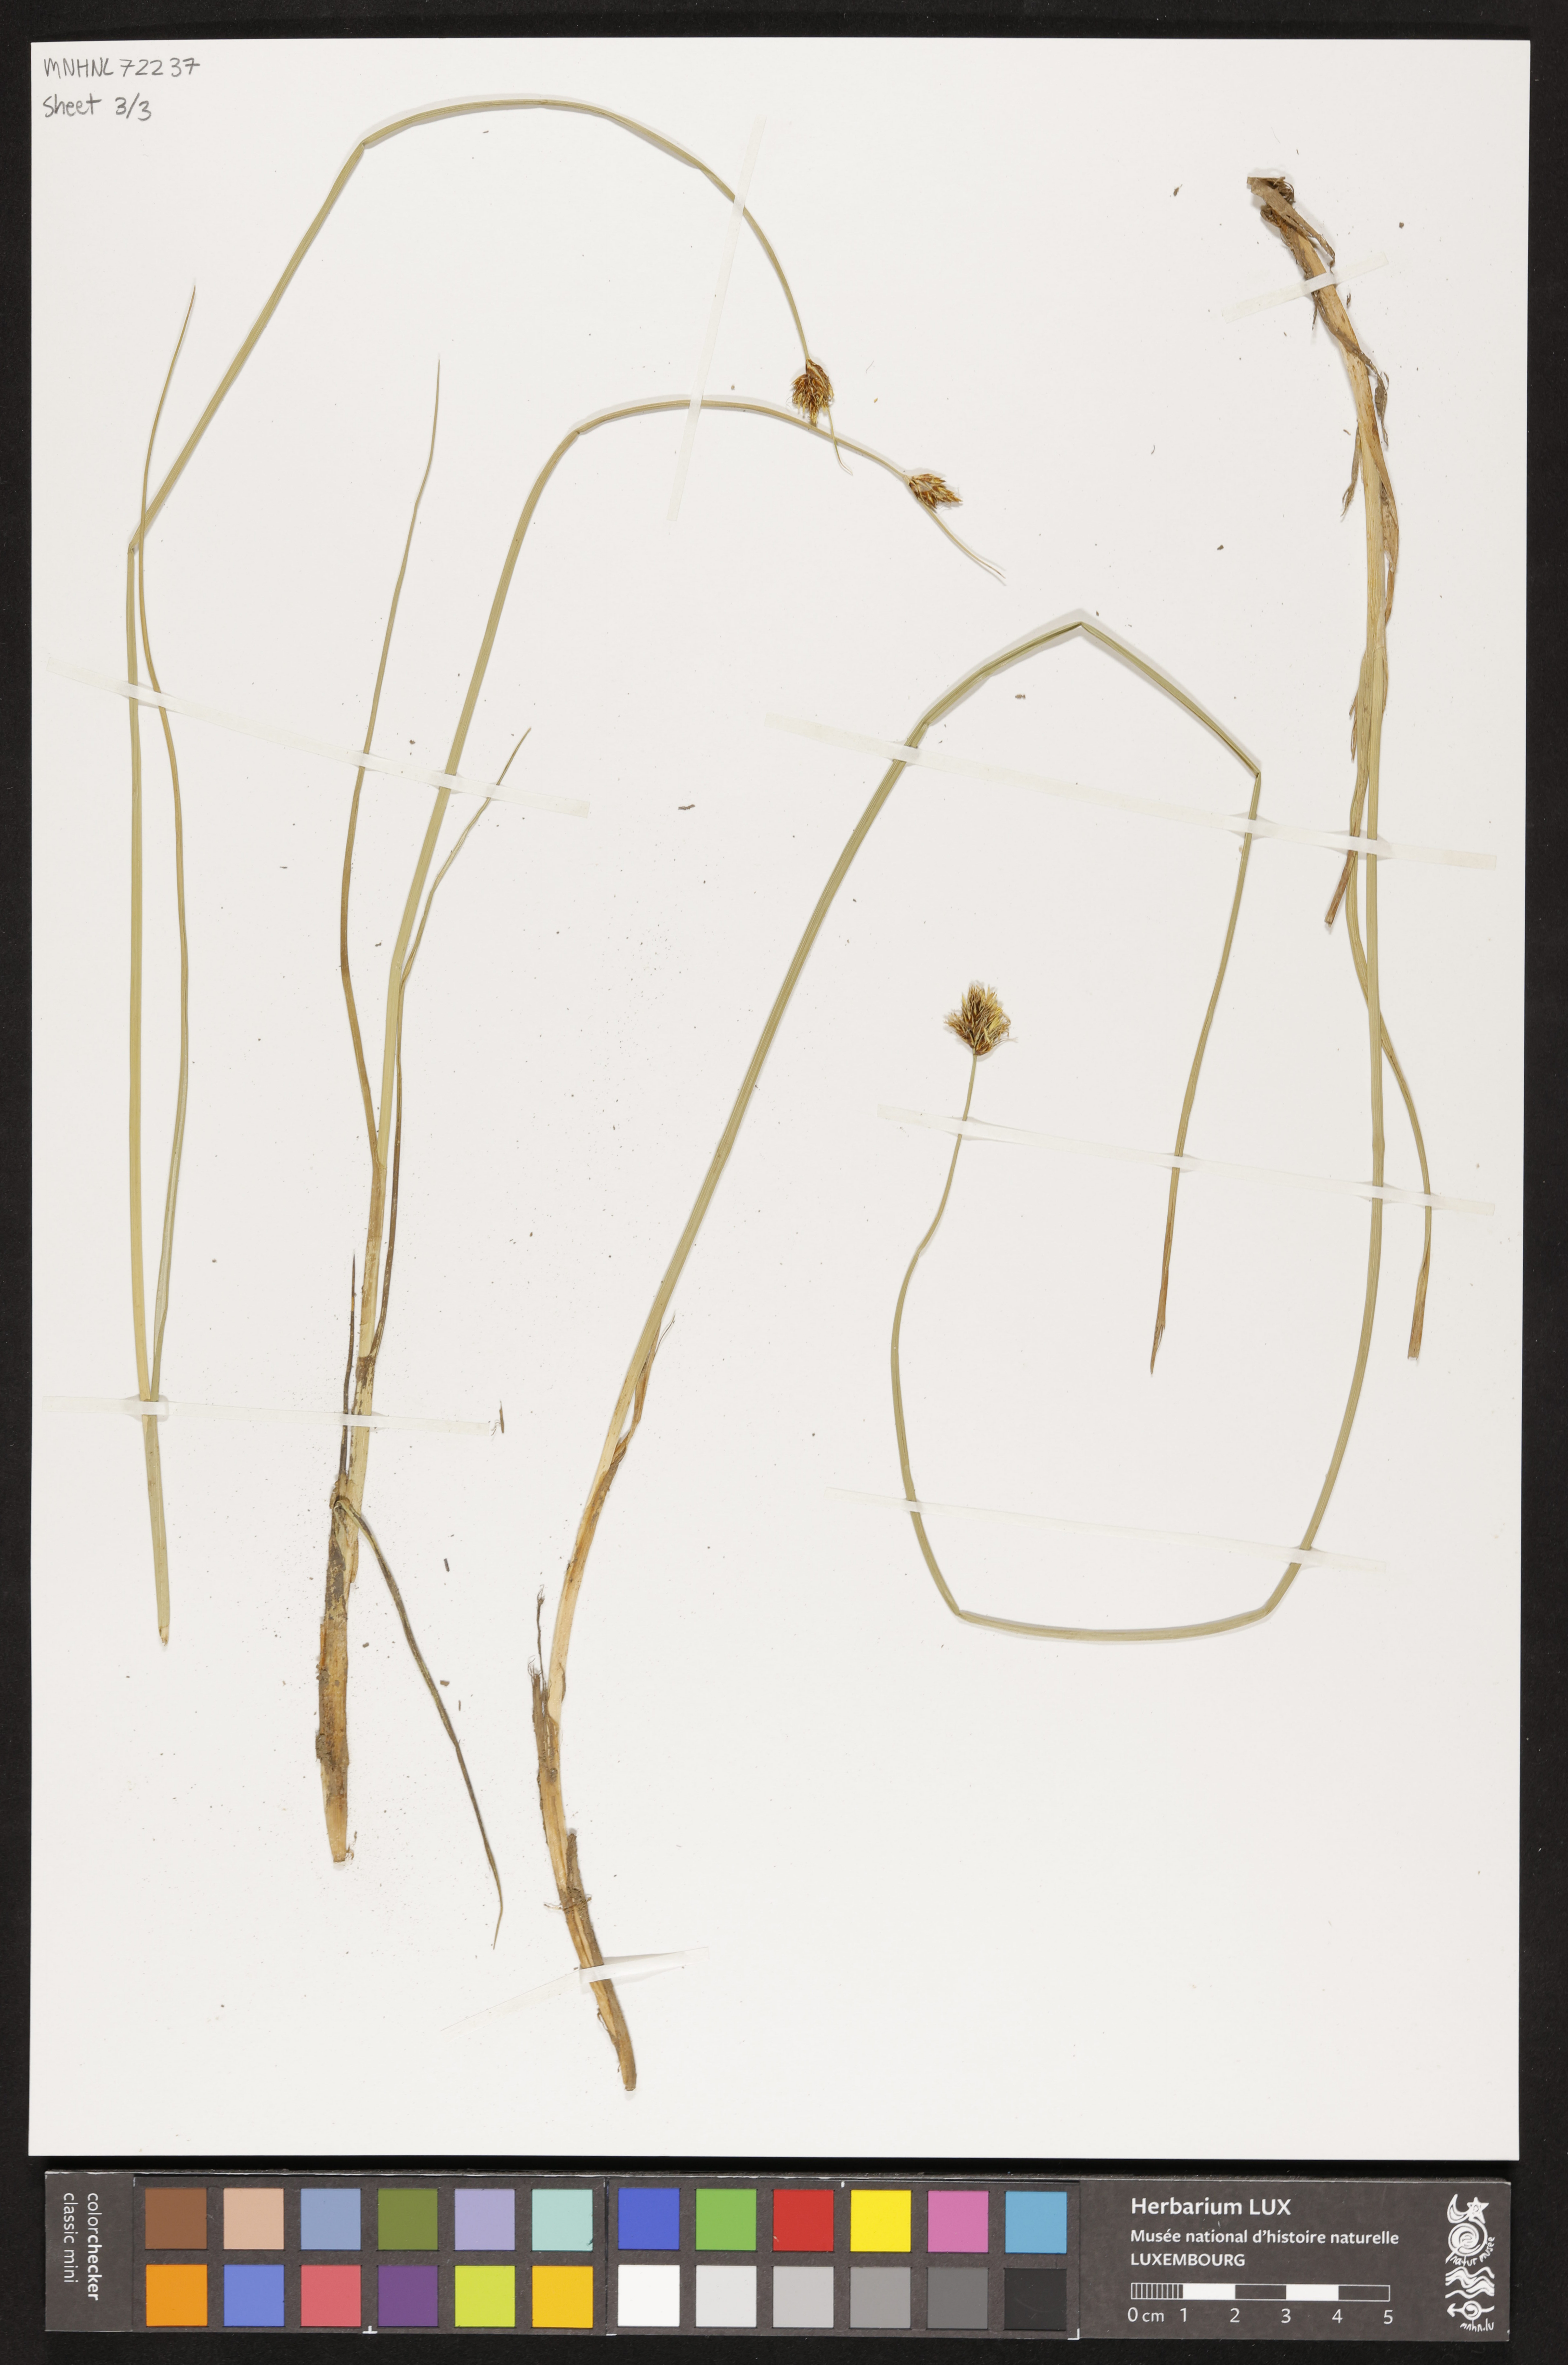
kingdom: Plantae
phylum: Tracheophyta
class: Liliopsida
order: Poales
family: Cyperaceae
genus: Scirpus
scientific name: Scirpus
